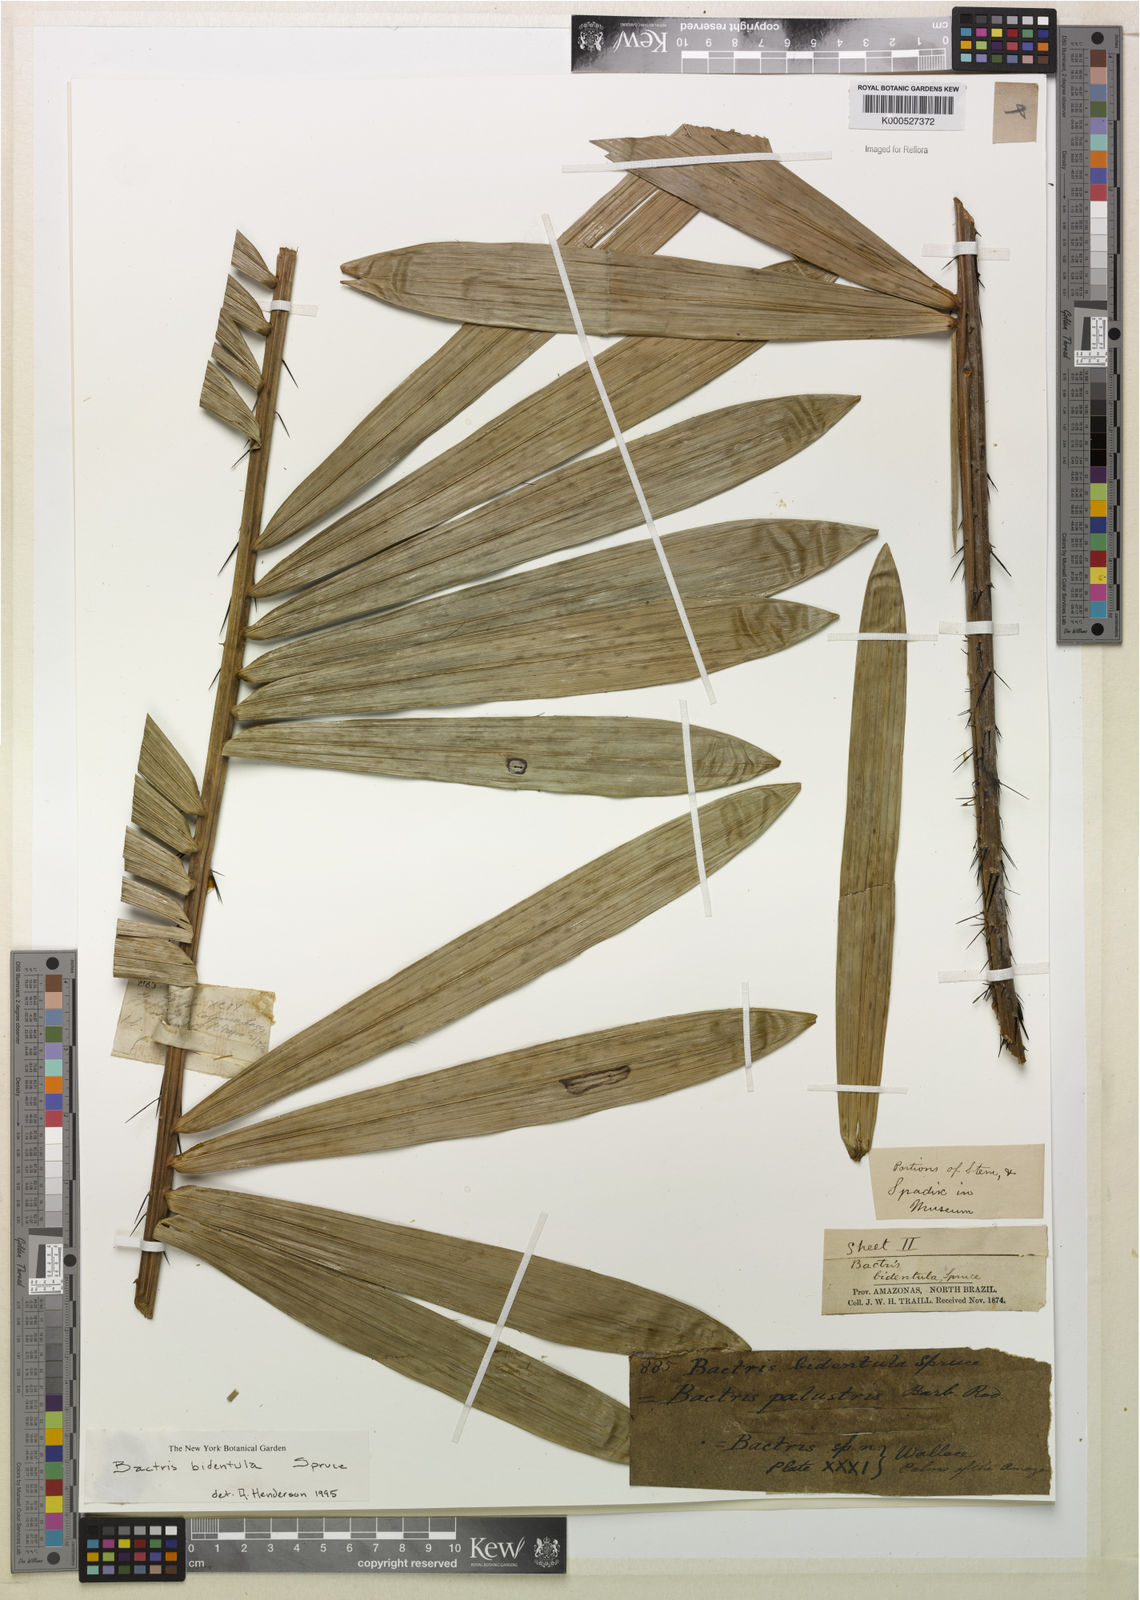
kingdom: Plantae
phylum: Tracheophyta
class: Liliopsida
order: Arecales
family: Arecaceae
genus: Bactris
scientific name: Bactris bidentula
